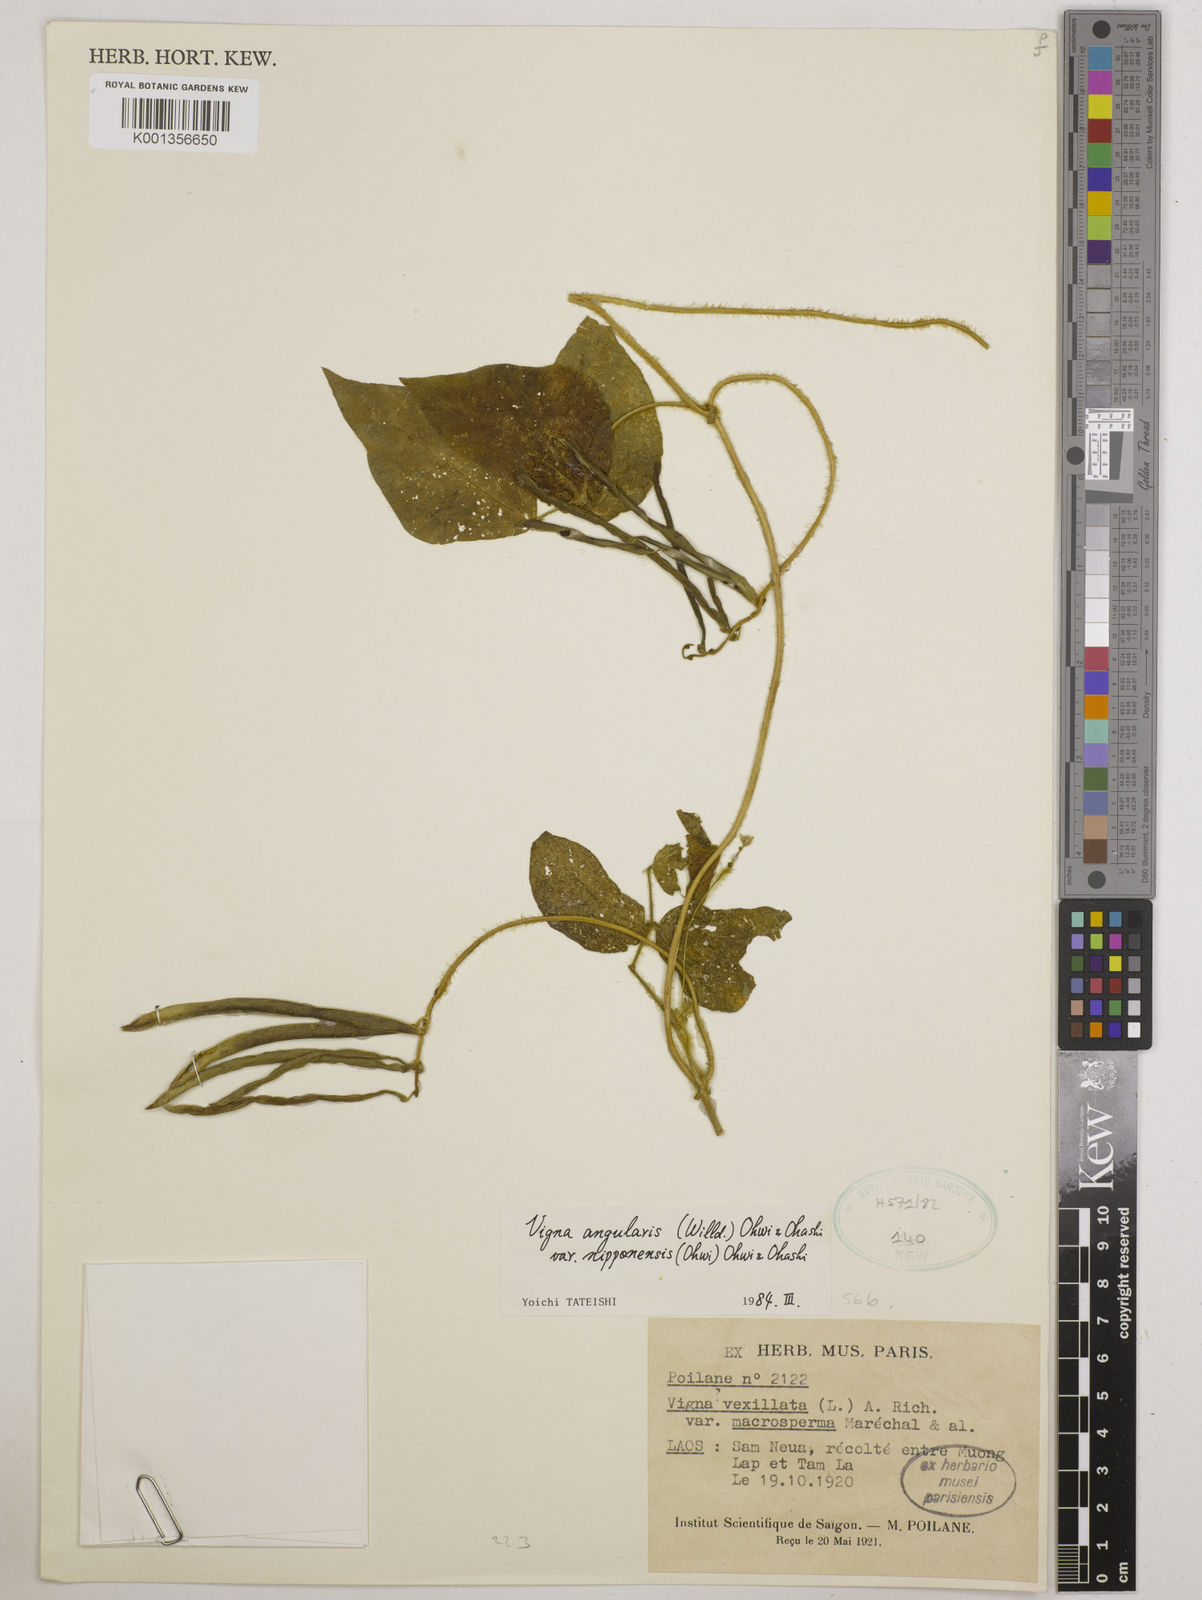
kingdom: Plantae
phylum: Tracheophyta
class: Magnoliopsida
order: Fabales
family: Fabaceae
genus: Vigna
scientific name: Vigna
